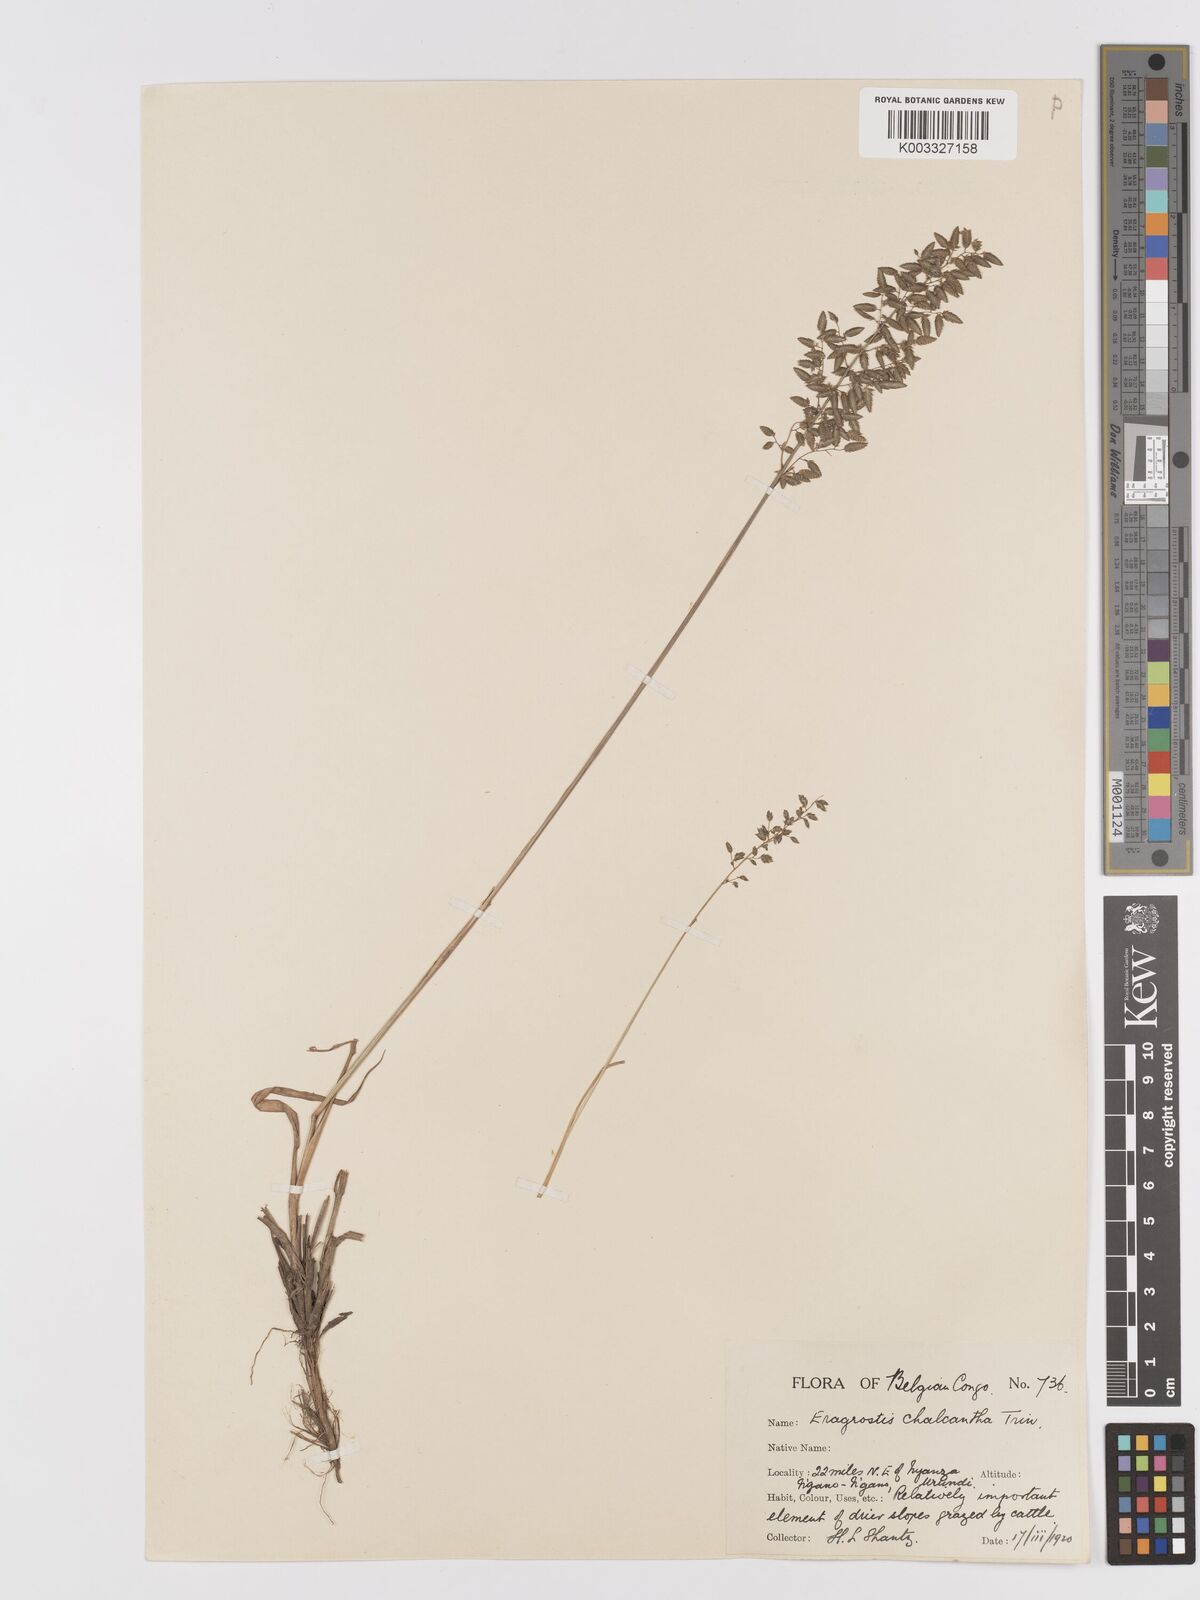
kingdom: Plantae
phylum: Tracheophyta
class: Liliopsida
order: Poales
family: Poaceae
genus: Eragrostis
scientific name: Eragrostis racemosa
